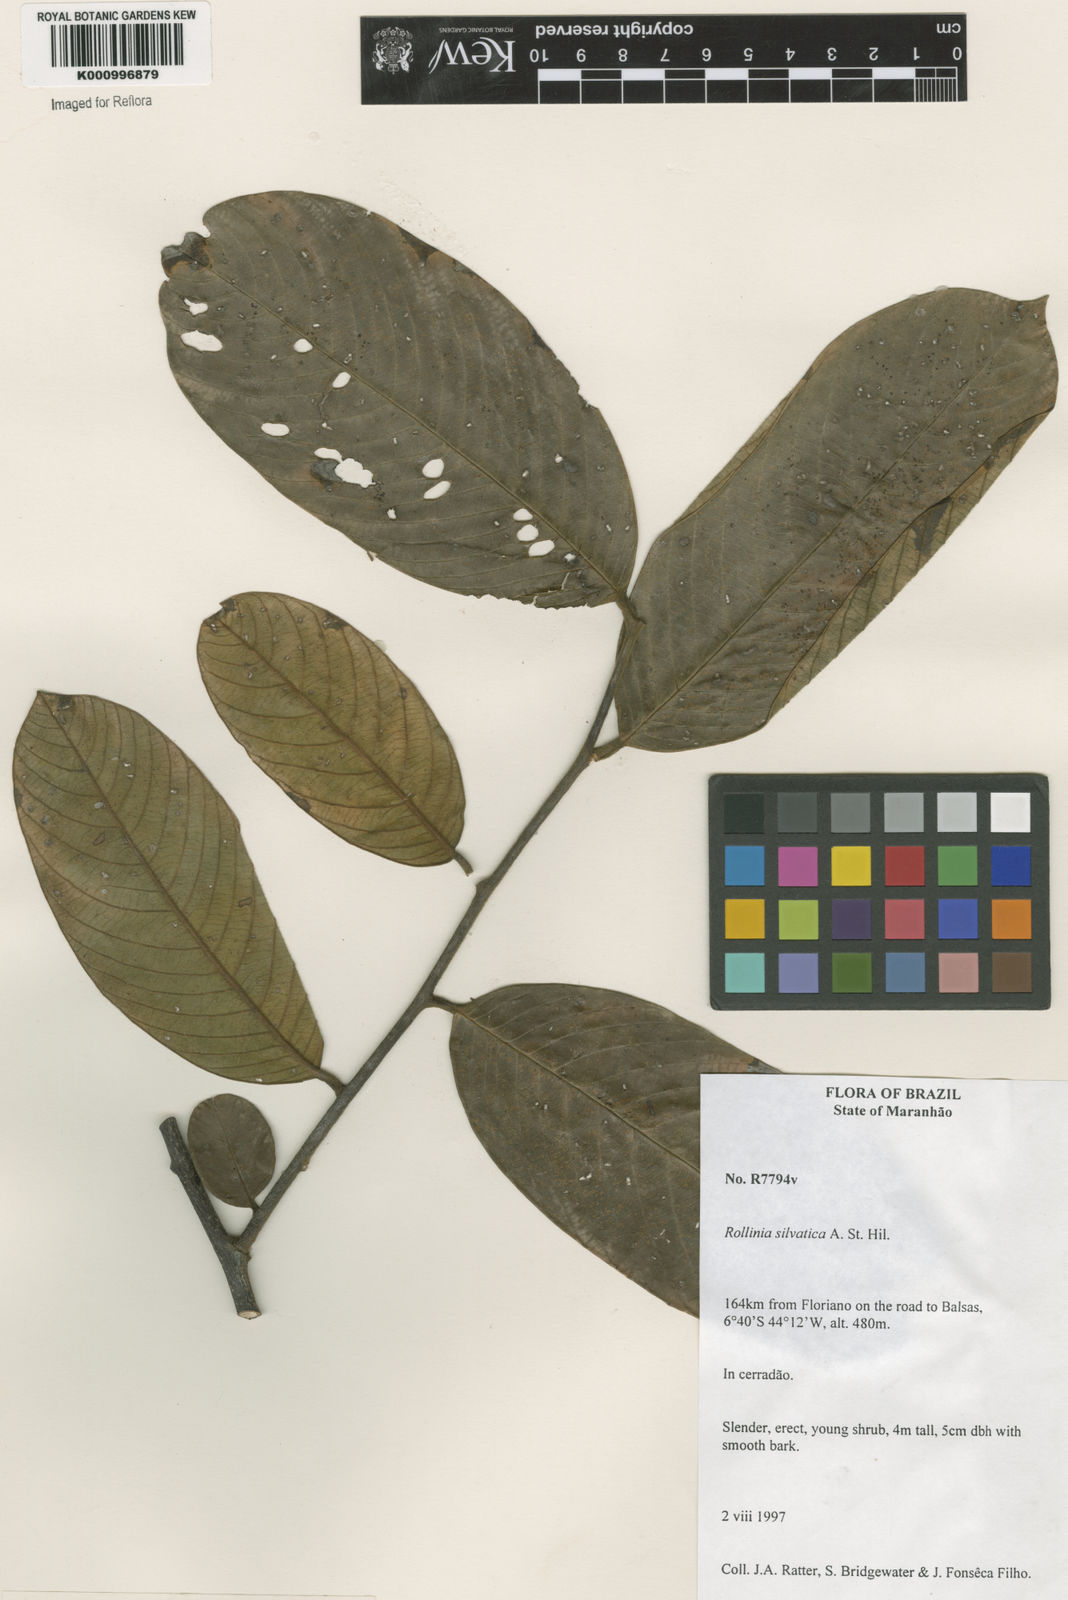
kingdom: Plantae
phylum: Tracheophyta
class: Magnoliopsida
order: Magnoliales
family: Annonaceae
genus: Annona
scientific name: Annona sylvatica
